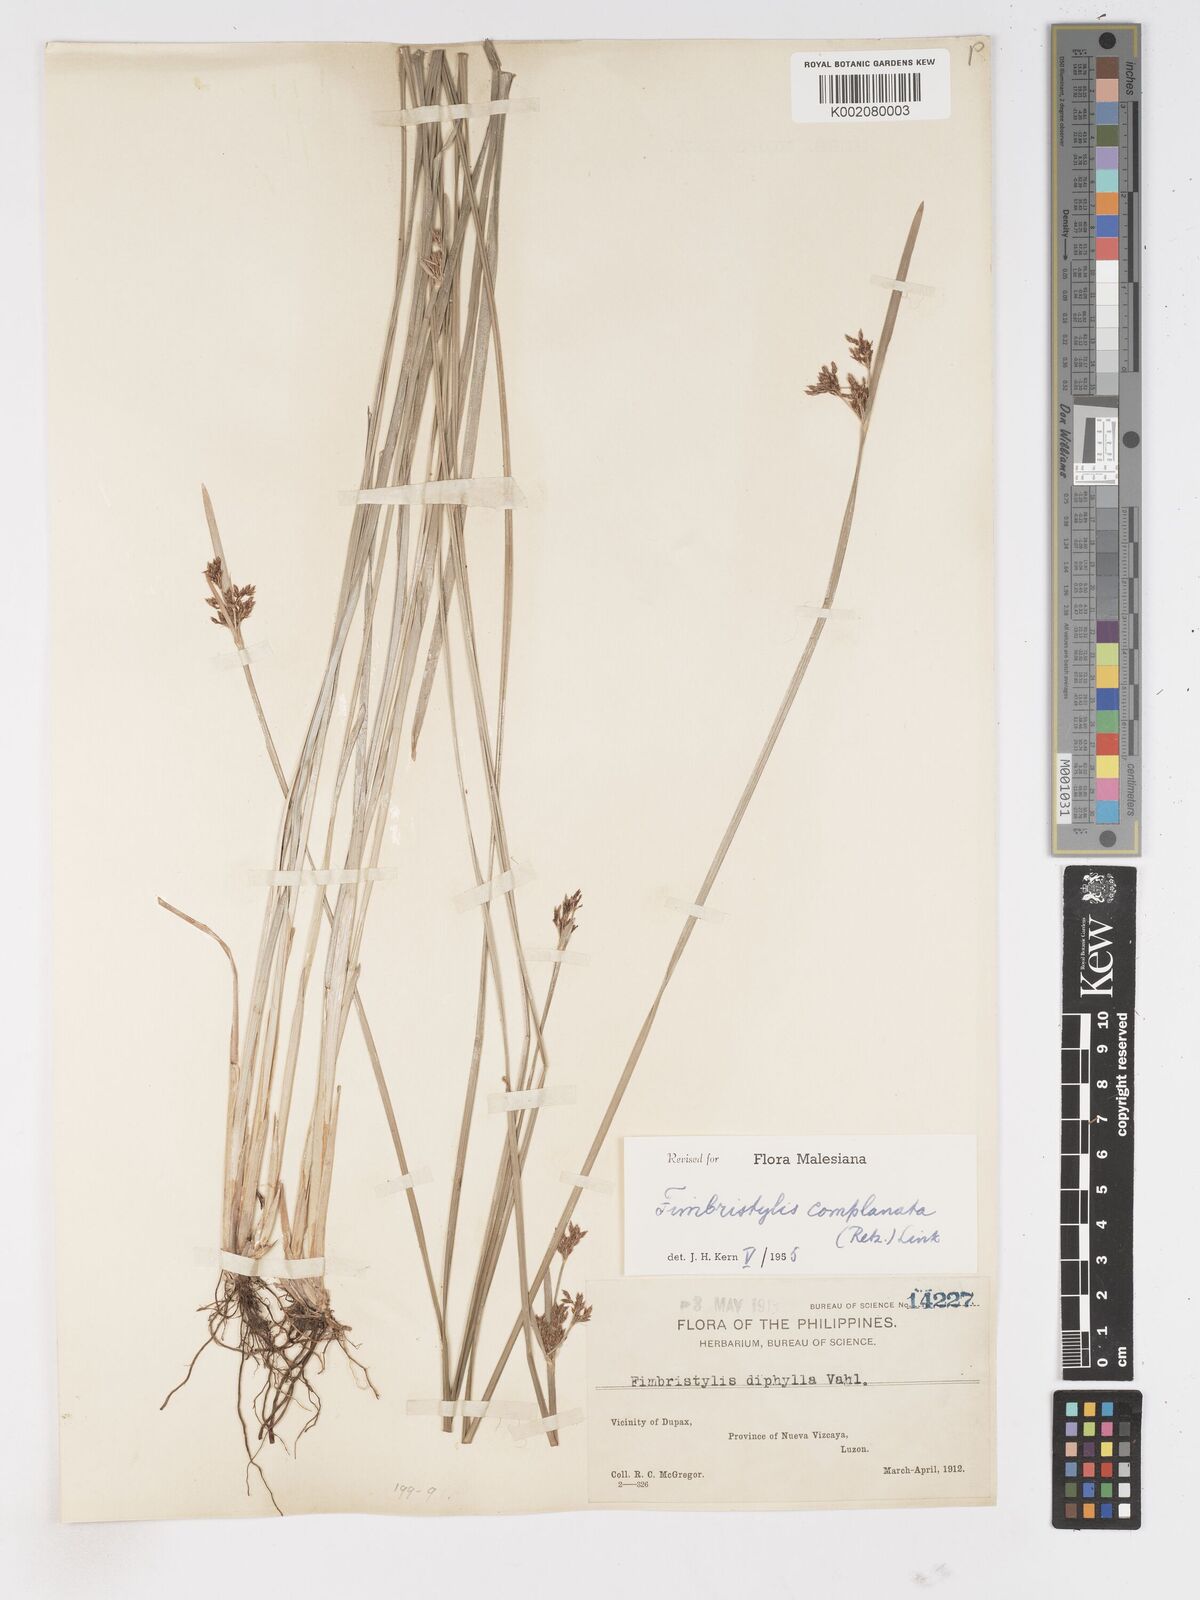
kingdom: Plantae
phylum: Tracheophyta
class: Liliopsida
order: Poales
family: Cyperaceae
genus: Fimbristylis
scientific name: Fimbristylis complanata
